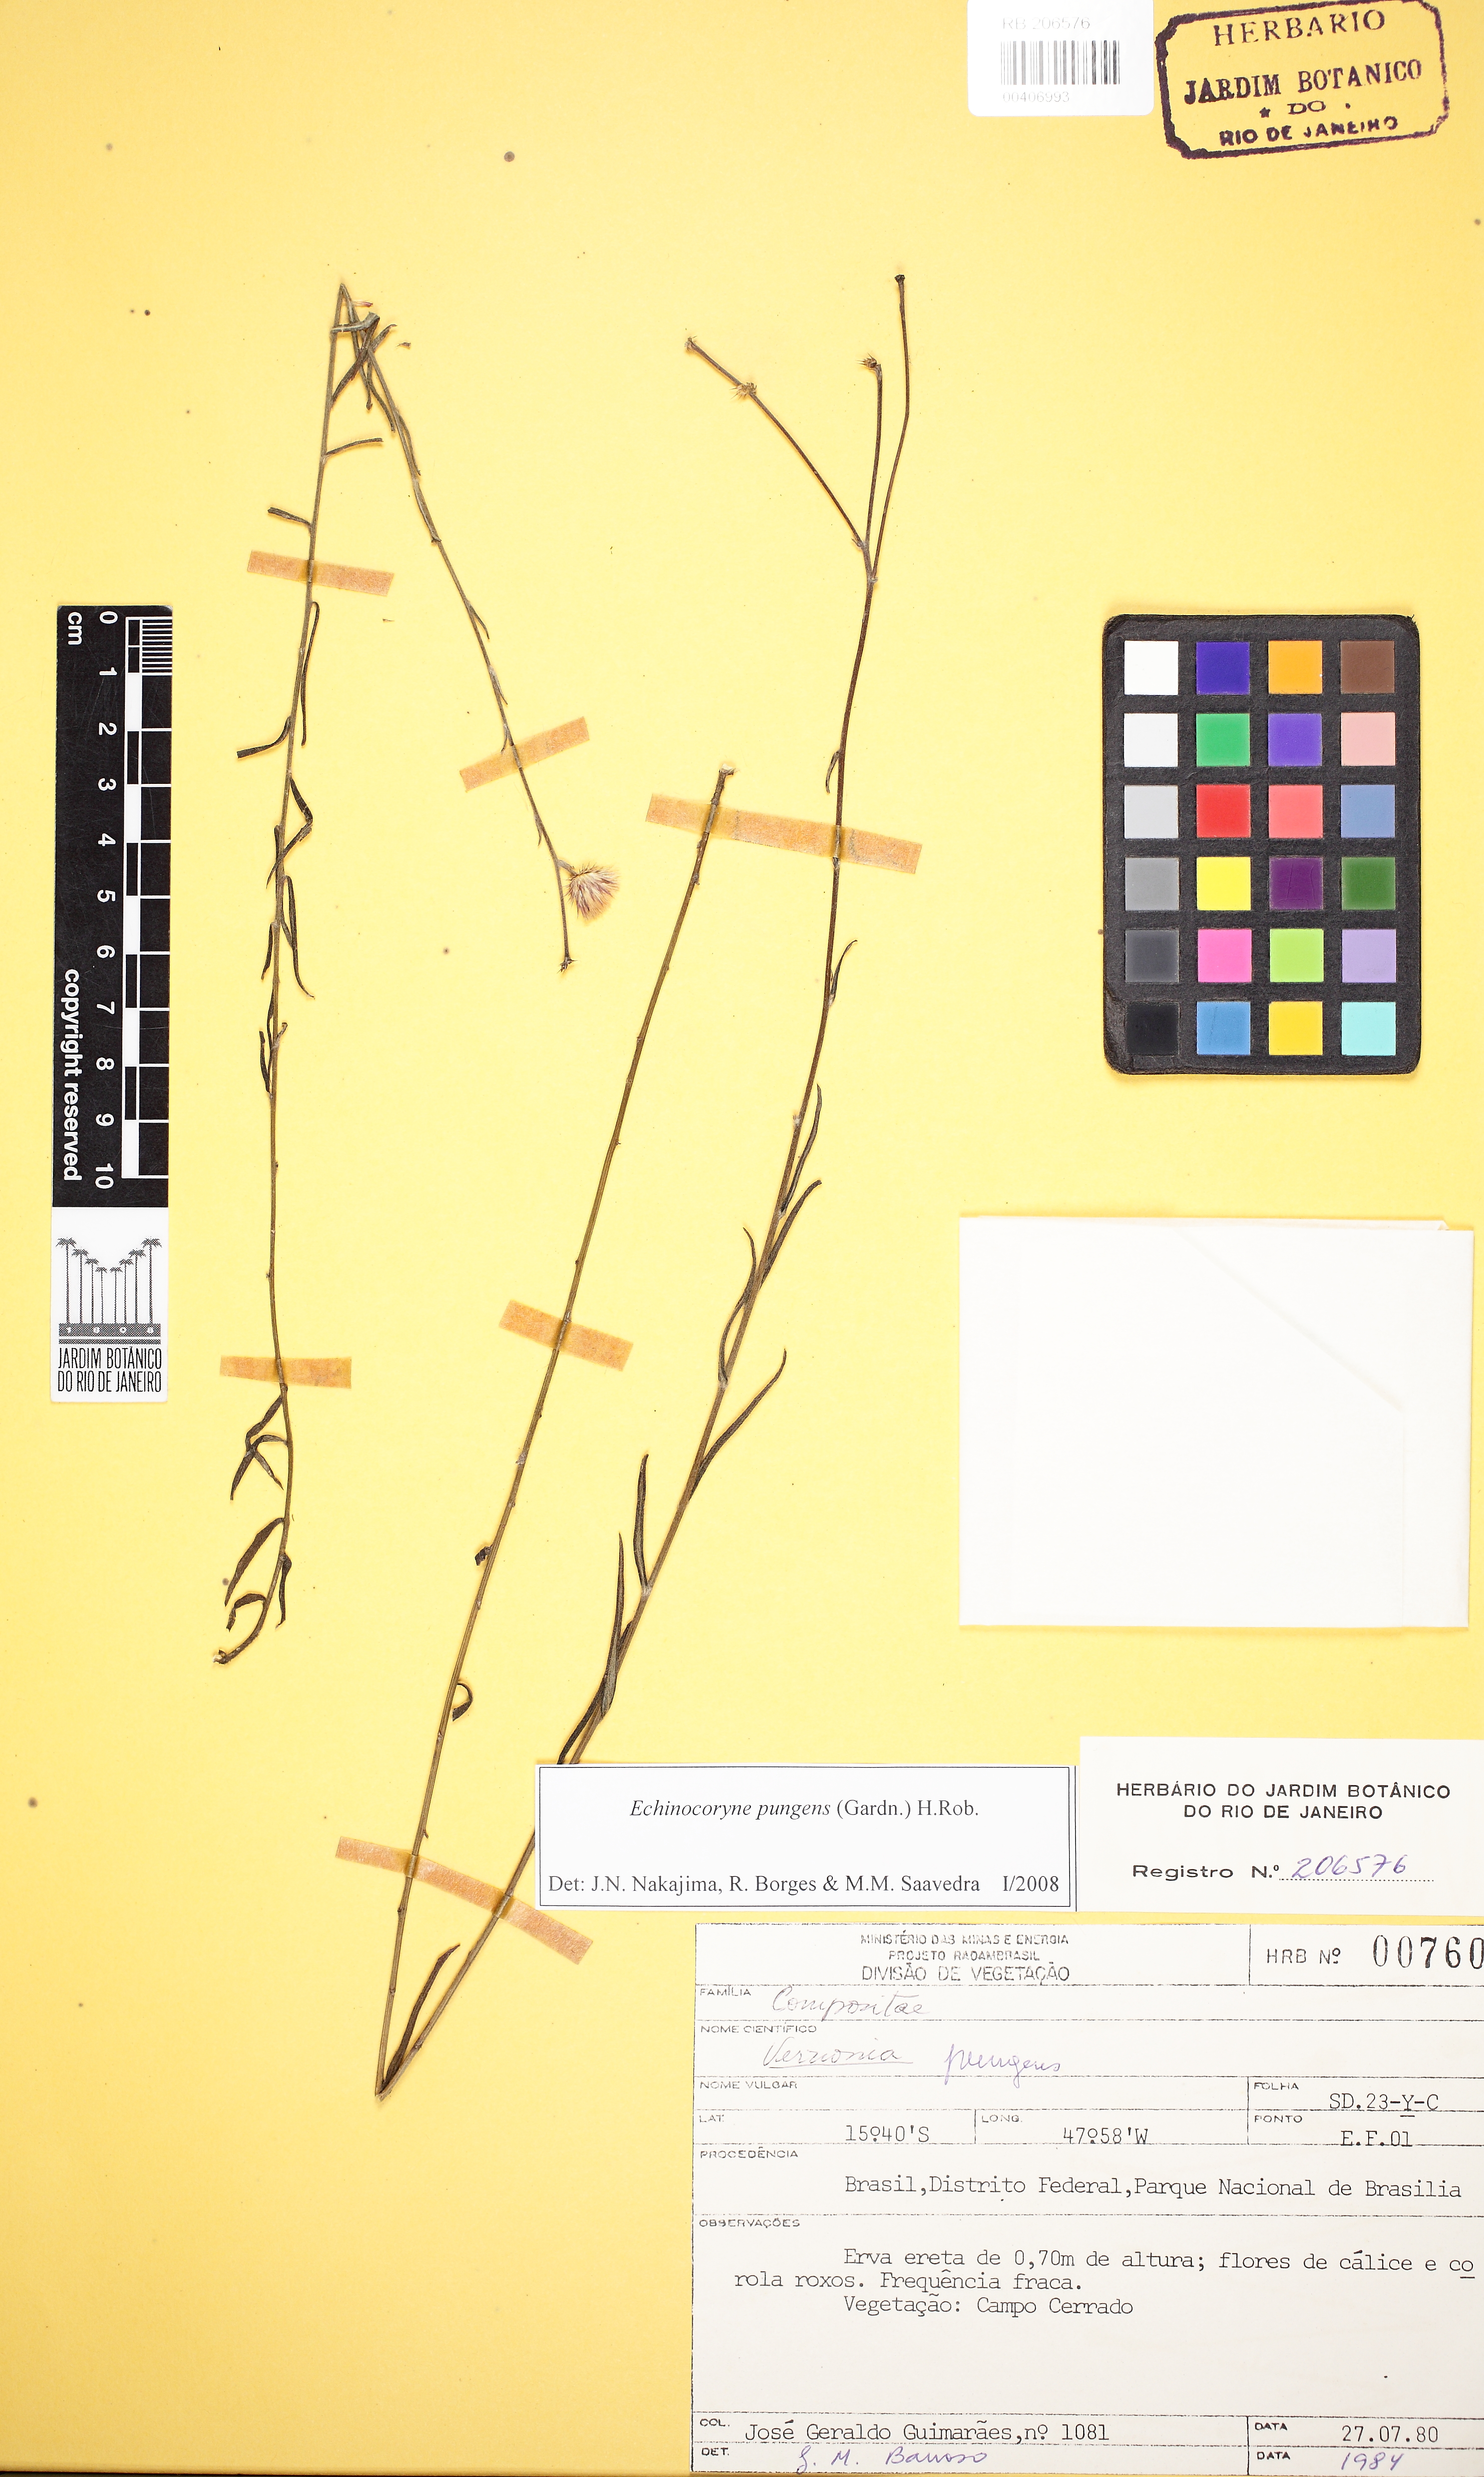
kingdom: Plantae
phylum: Tracheophyta
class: Magnoliopsida
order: Asterales
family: Asteraceae
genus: Echinocoryne
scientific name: Echinocoryne pungens
